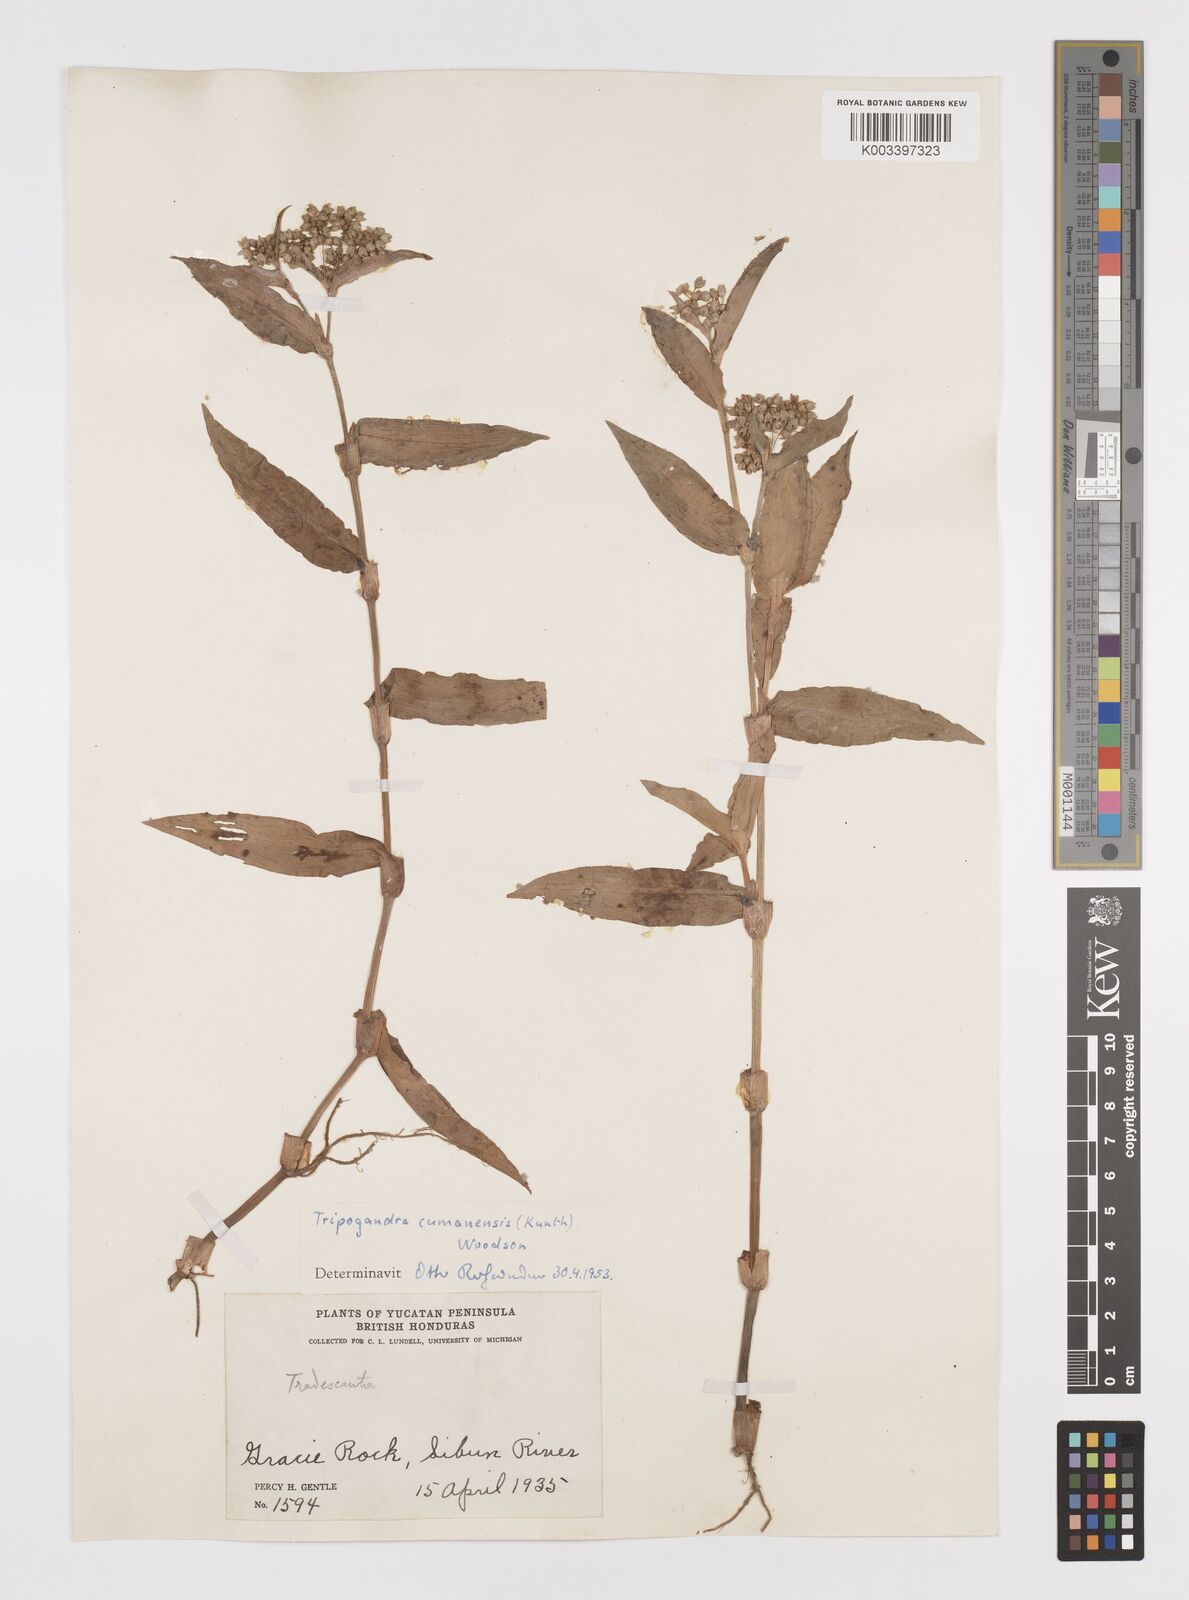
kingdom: Plantae
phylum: Tracheophyta
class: Liliopsida
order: Commelinales
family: Commelinaceae
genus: Callisia
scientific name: Callisia serrulata
